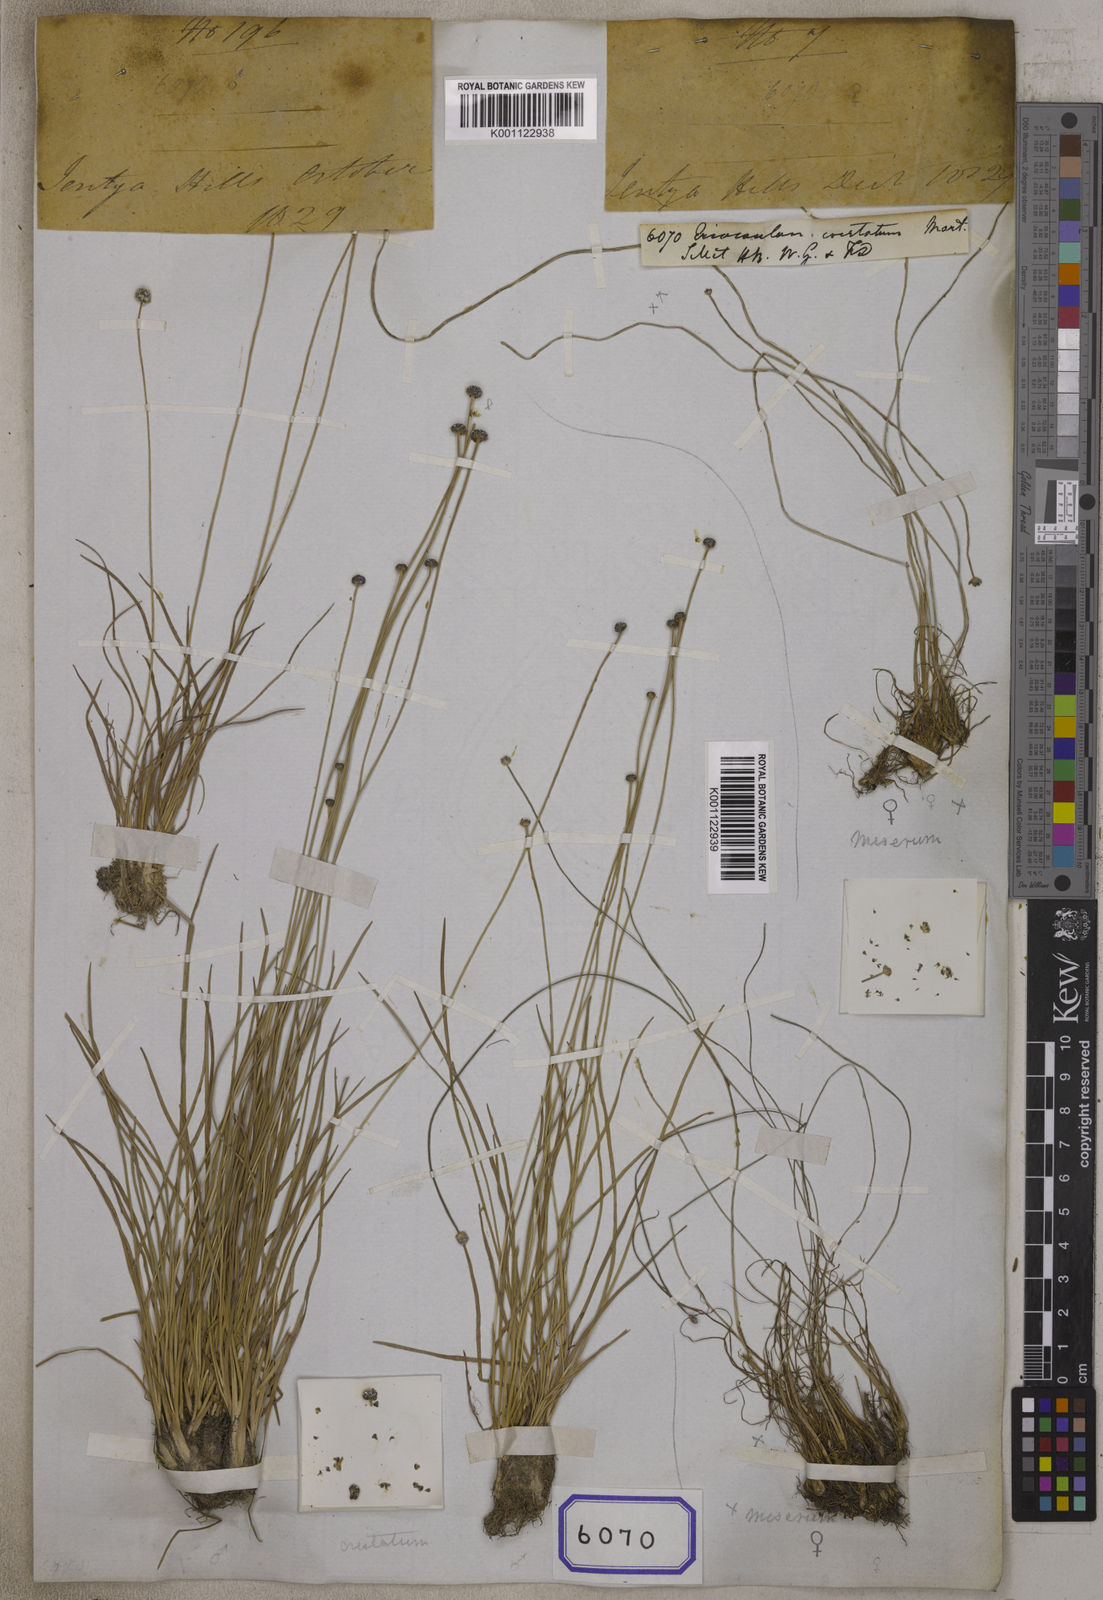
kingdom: Plantae
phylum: Tracheophyta
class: Liliopsida
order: Poales
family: Eriocaulaceae
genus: Eriocaulon
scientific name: Eriocaulon cristatum
